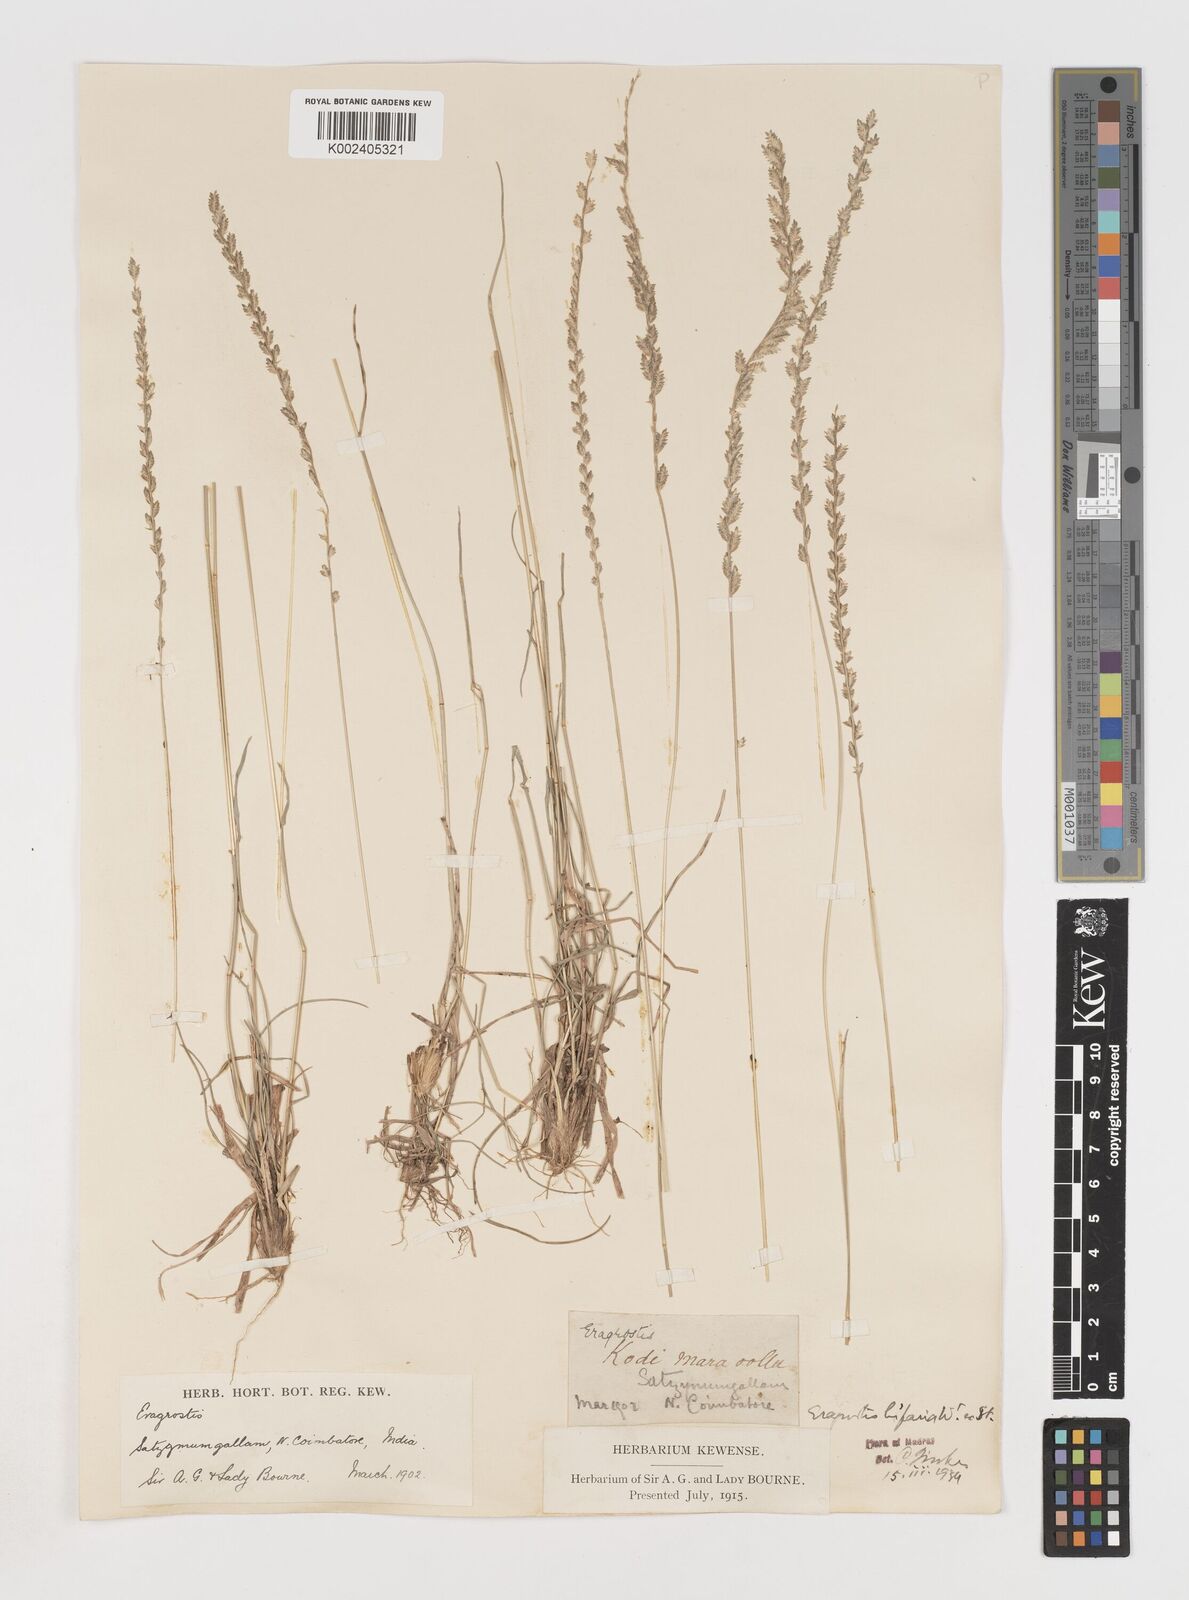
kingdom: Plantae
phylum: Tracheophyta
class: Liliopsida
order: Poales
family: Poaceae
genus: Eragrostiella
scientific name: Eragrostiella bifaria
